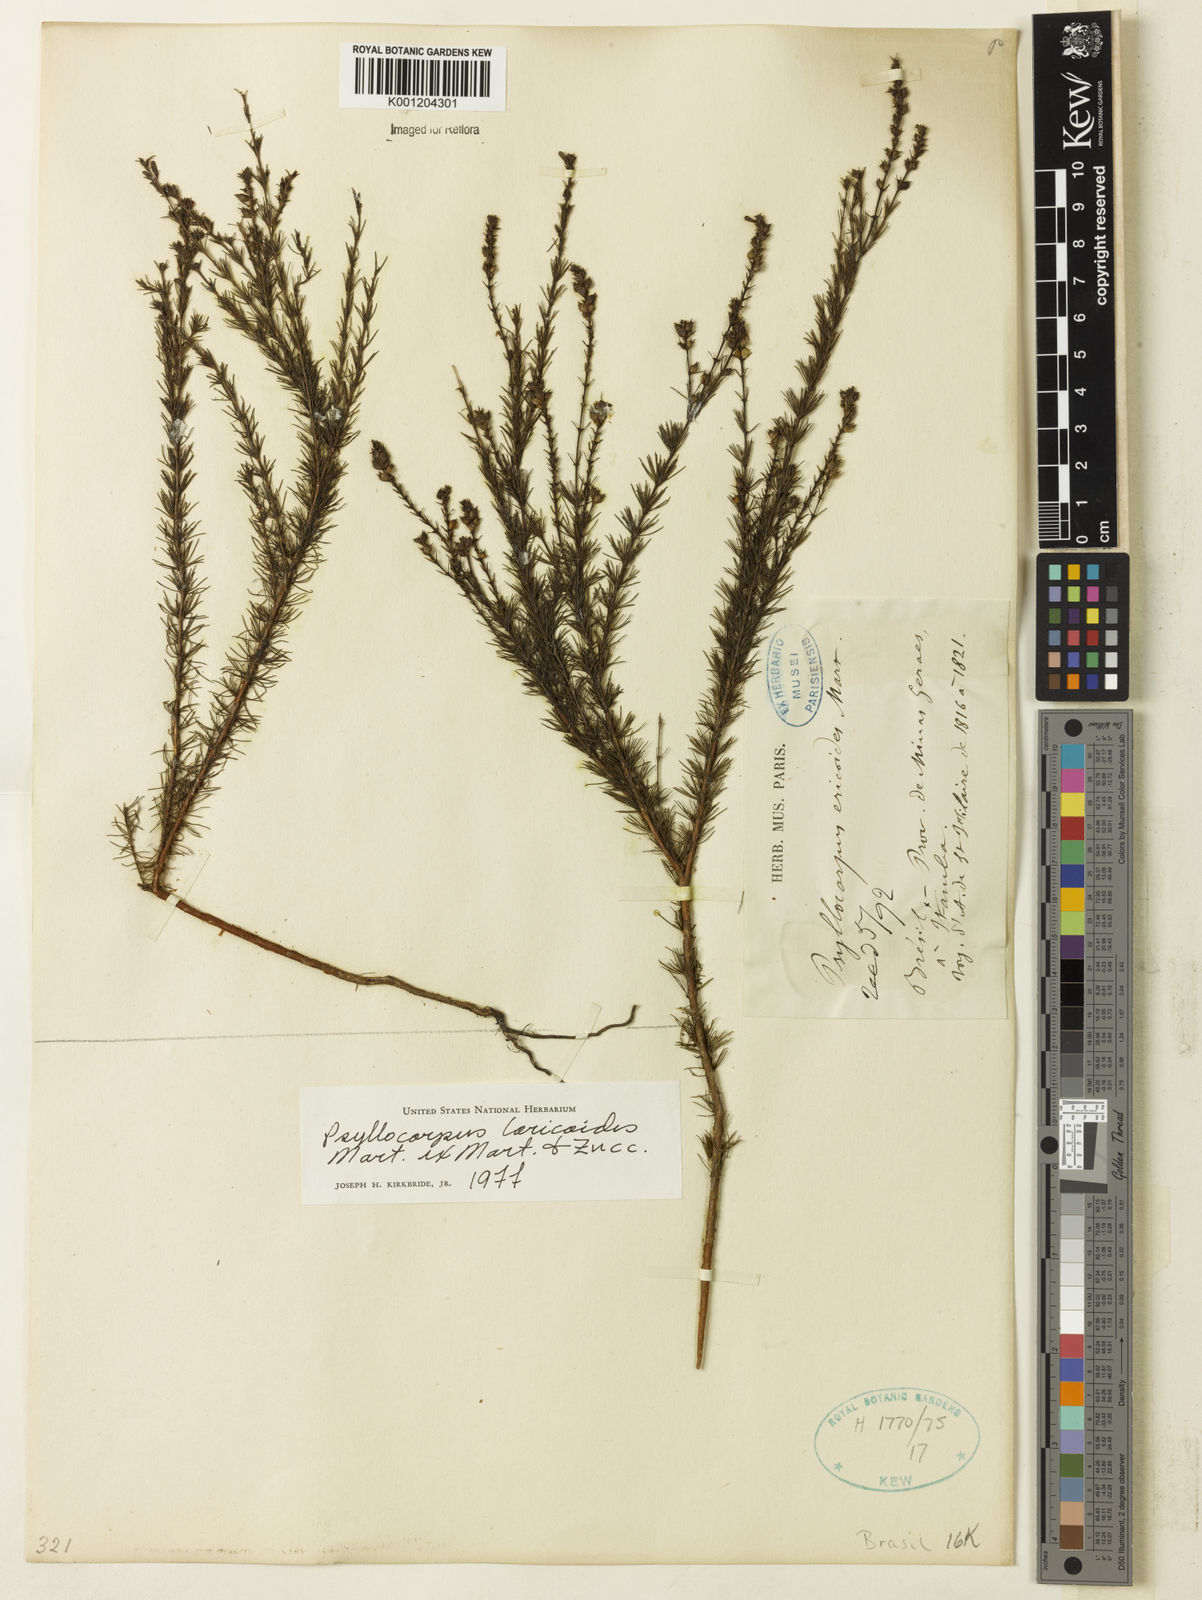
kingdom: Plantae
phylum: Tracheophyta
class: Magnoliopsida
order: Gentianales
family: Rubiaceae
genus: Psyllocarpus
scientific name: Psyllocarpus laricoides
